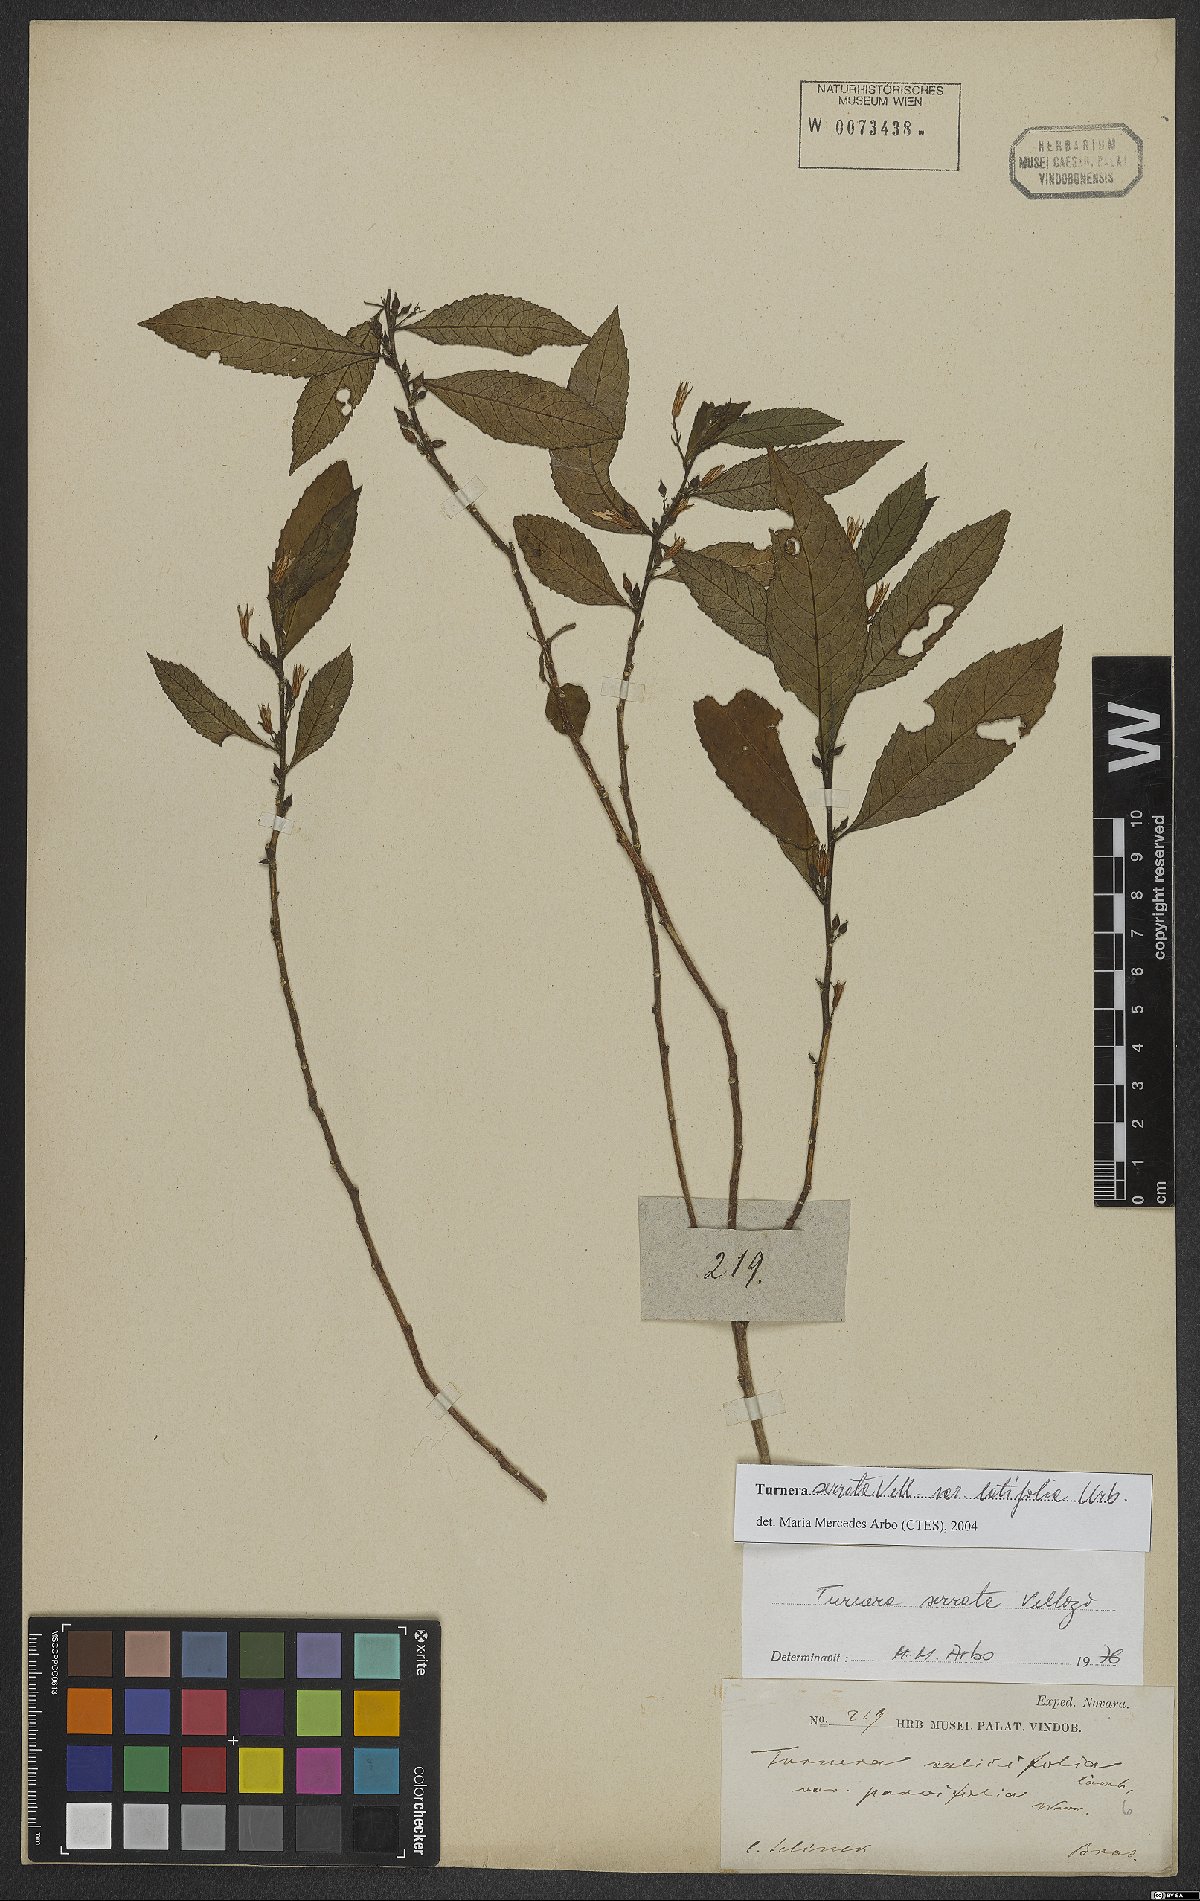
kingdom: Plantae
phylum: Tracheophyta
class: Magnoliopsida
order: Malpighiales
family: Turneraceae
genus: Turnera
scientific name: Turnera serrata
